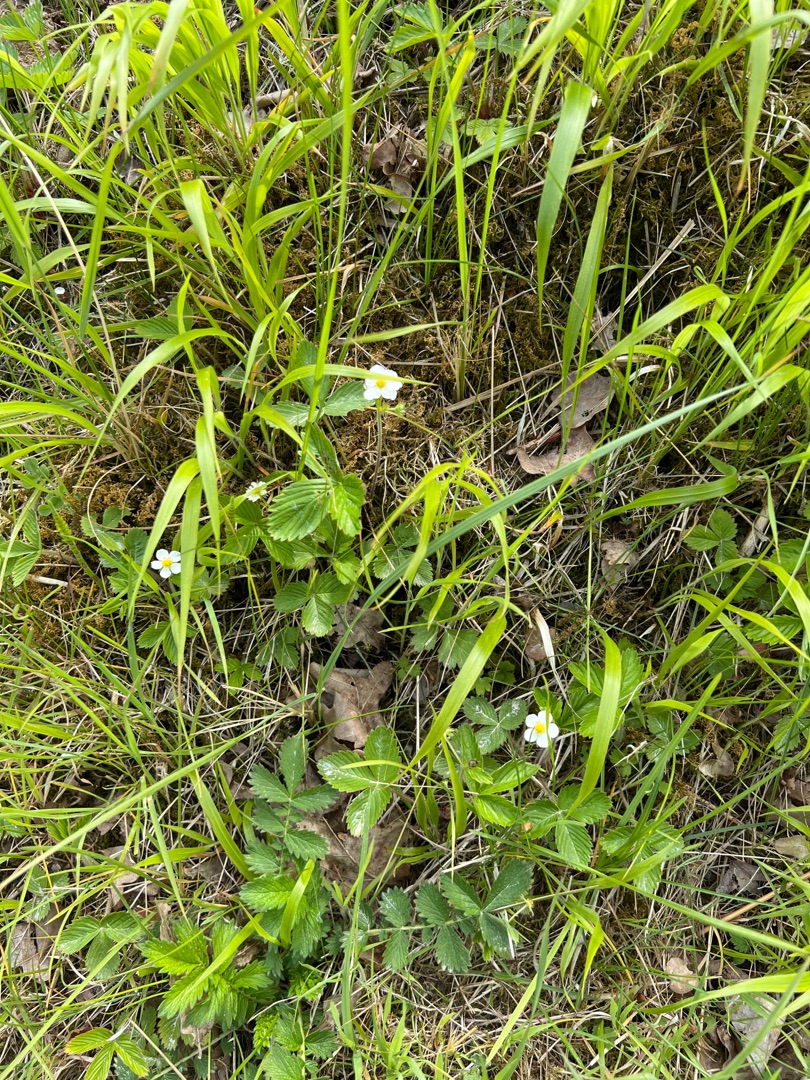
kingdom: Plantae
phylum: Tracheophyta
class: Magnoliopsida
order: Rosales
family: Rosaceae
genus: Fragaria
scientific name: Fragaria vesca
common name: Skov-jordbær
